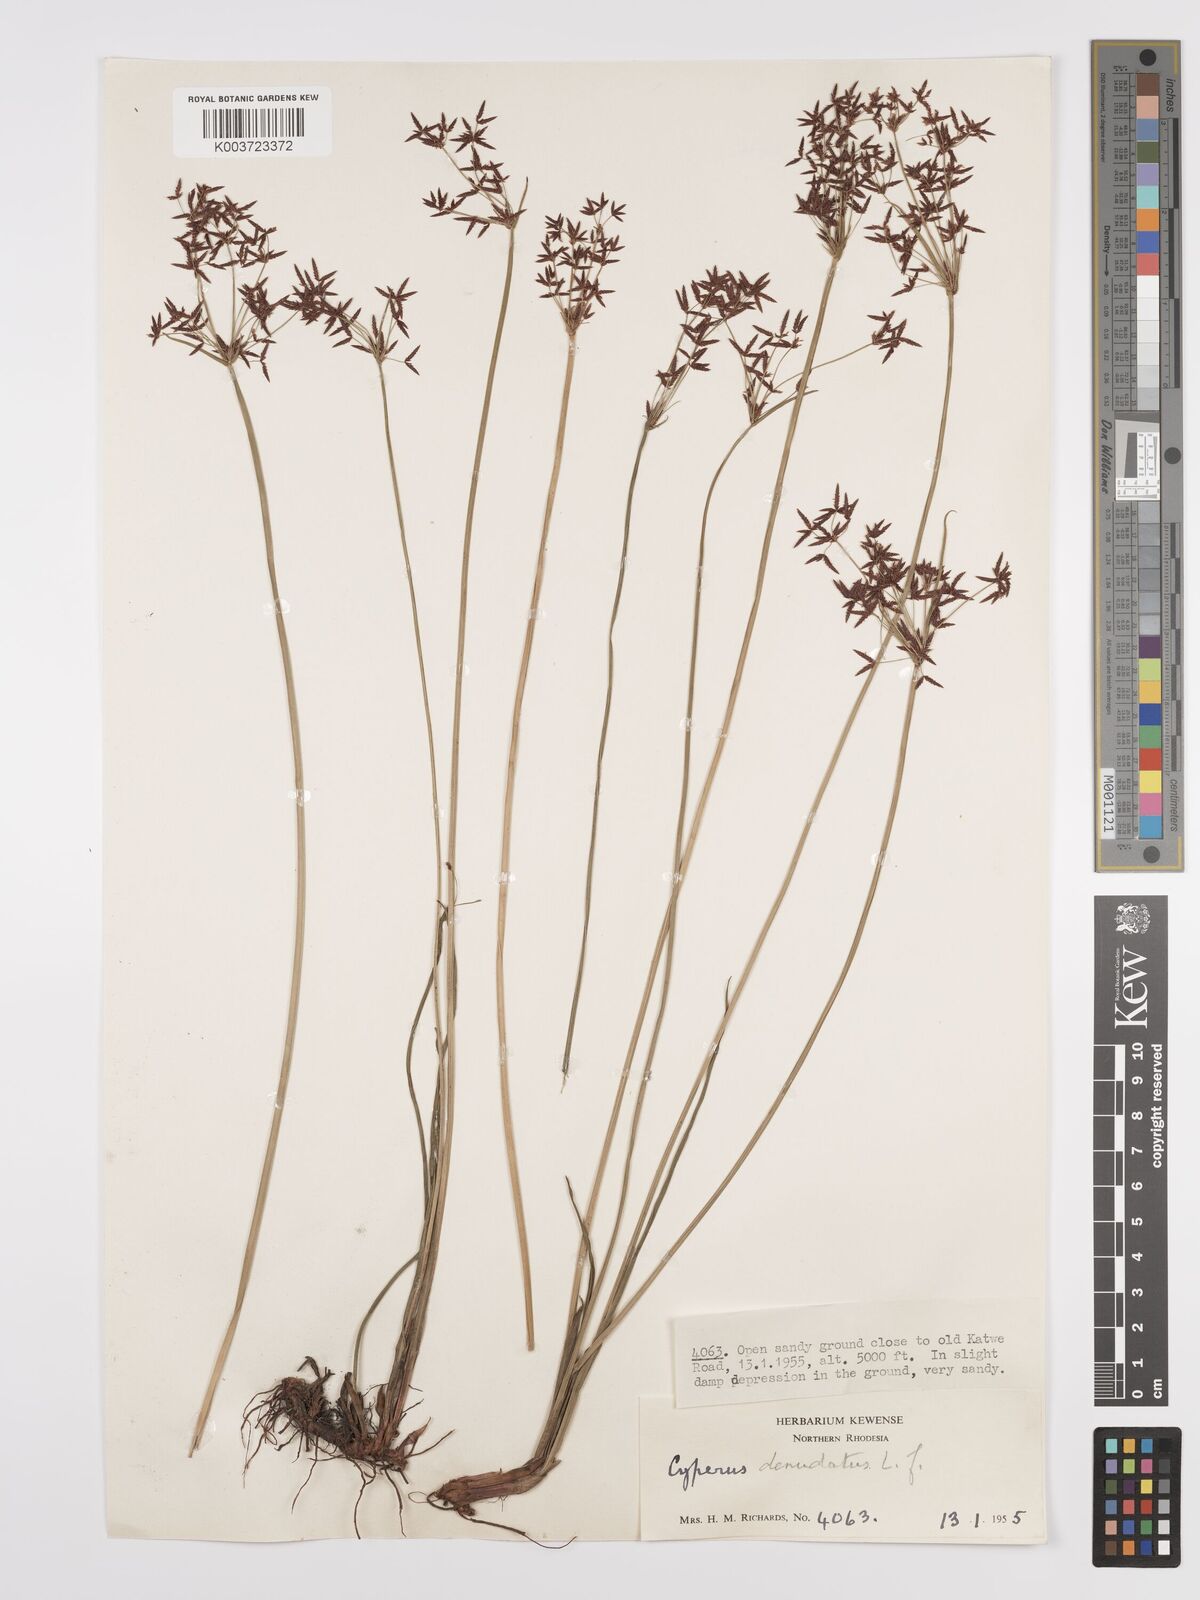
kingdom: Plantae
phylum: Tracheophyta
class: Liliopsida
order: Poales
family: Cyperaceae
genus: Cyperus
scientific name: Cyperus denudatus
